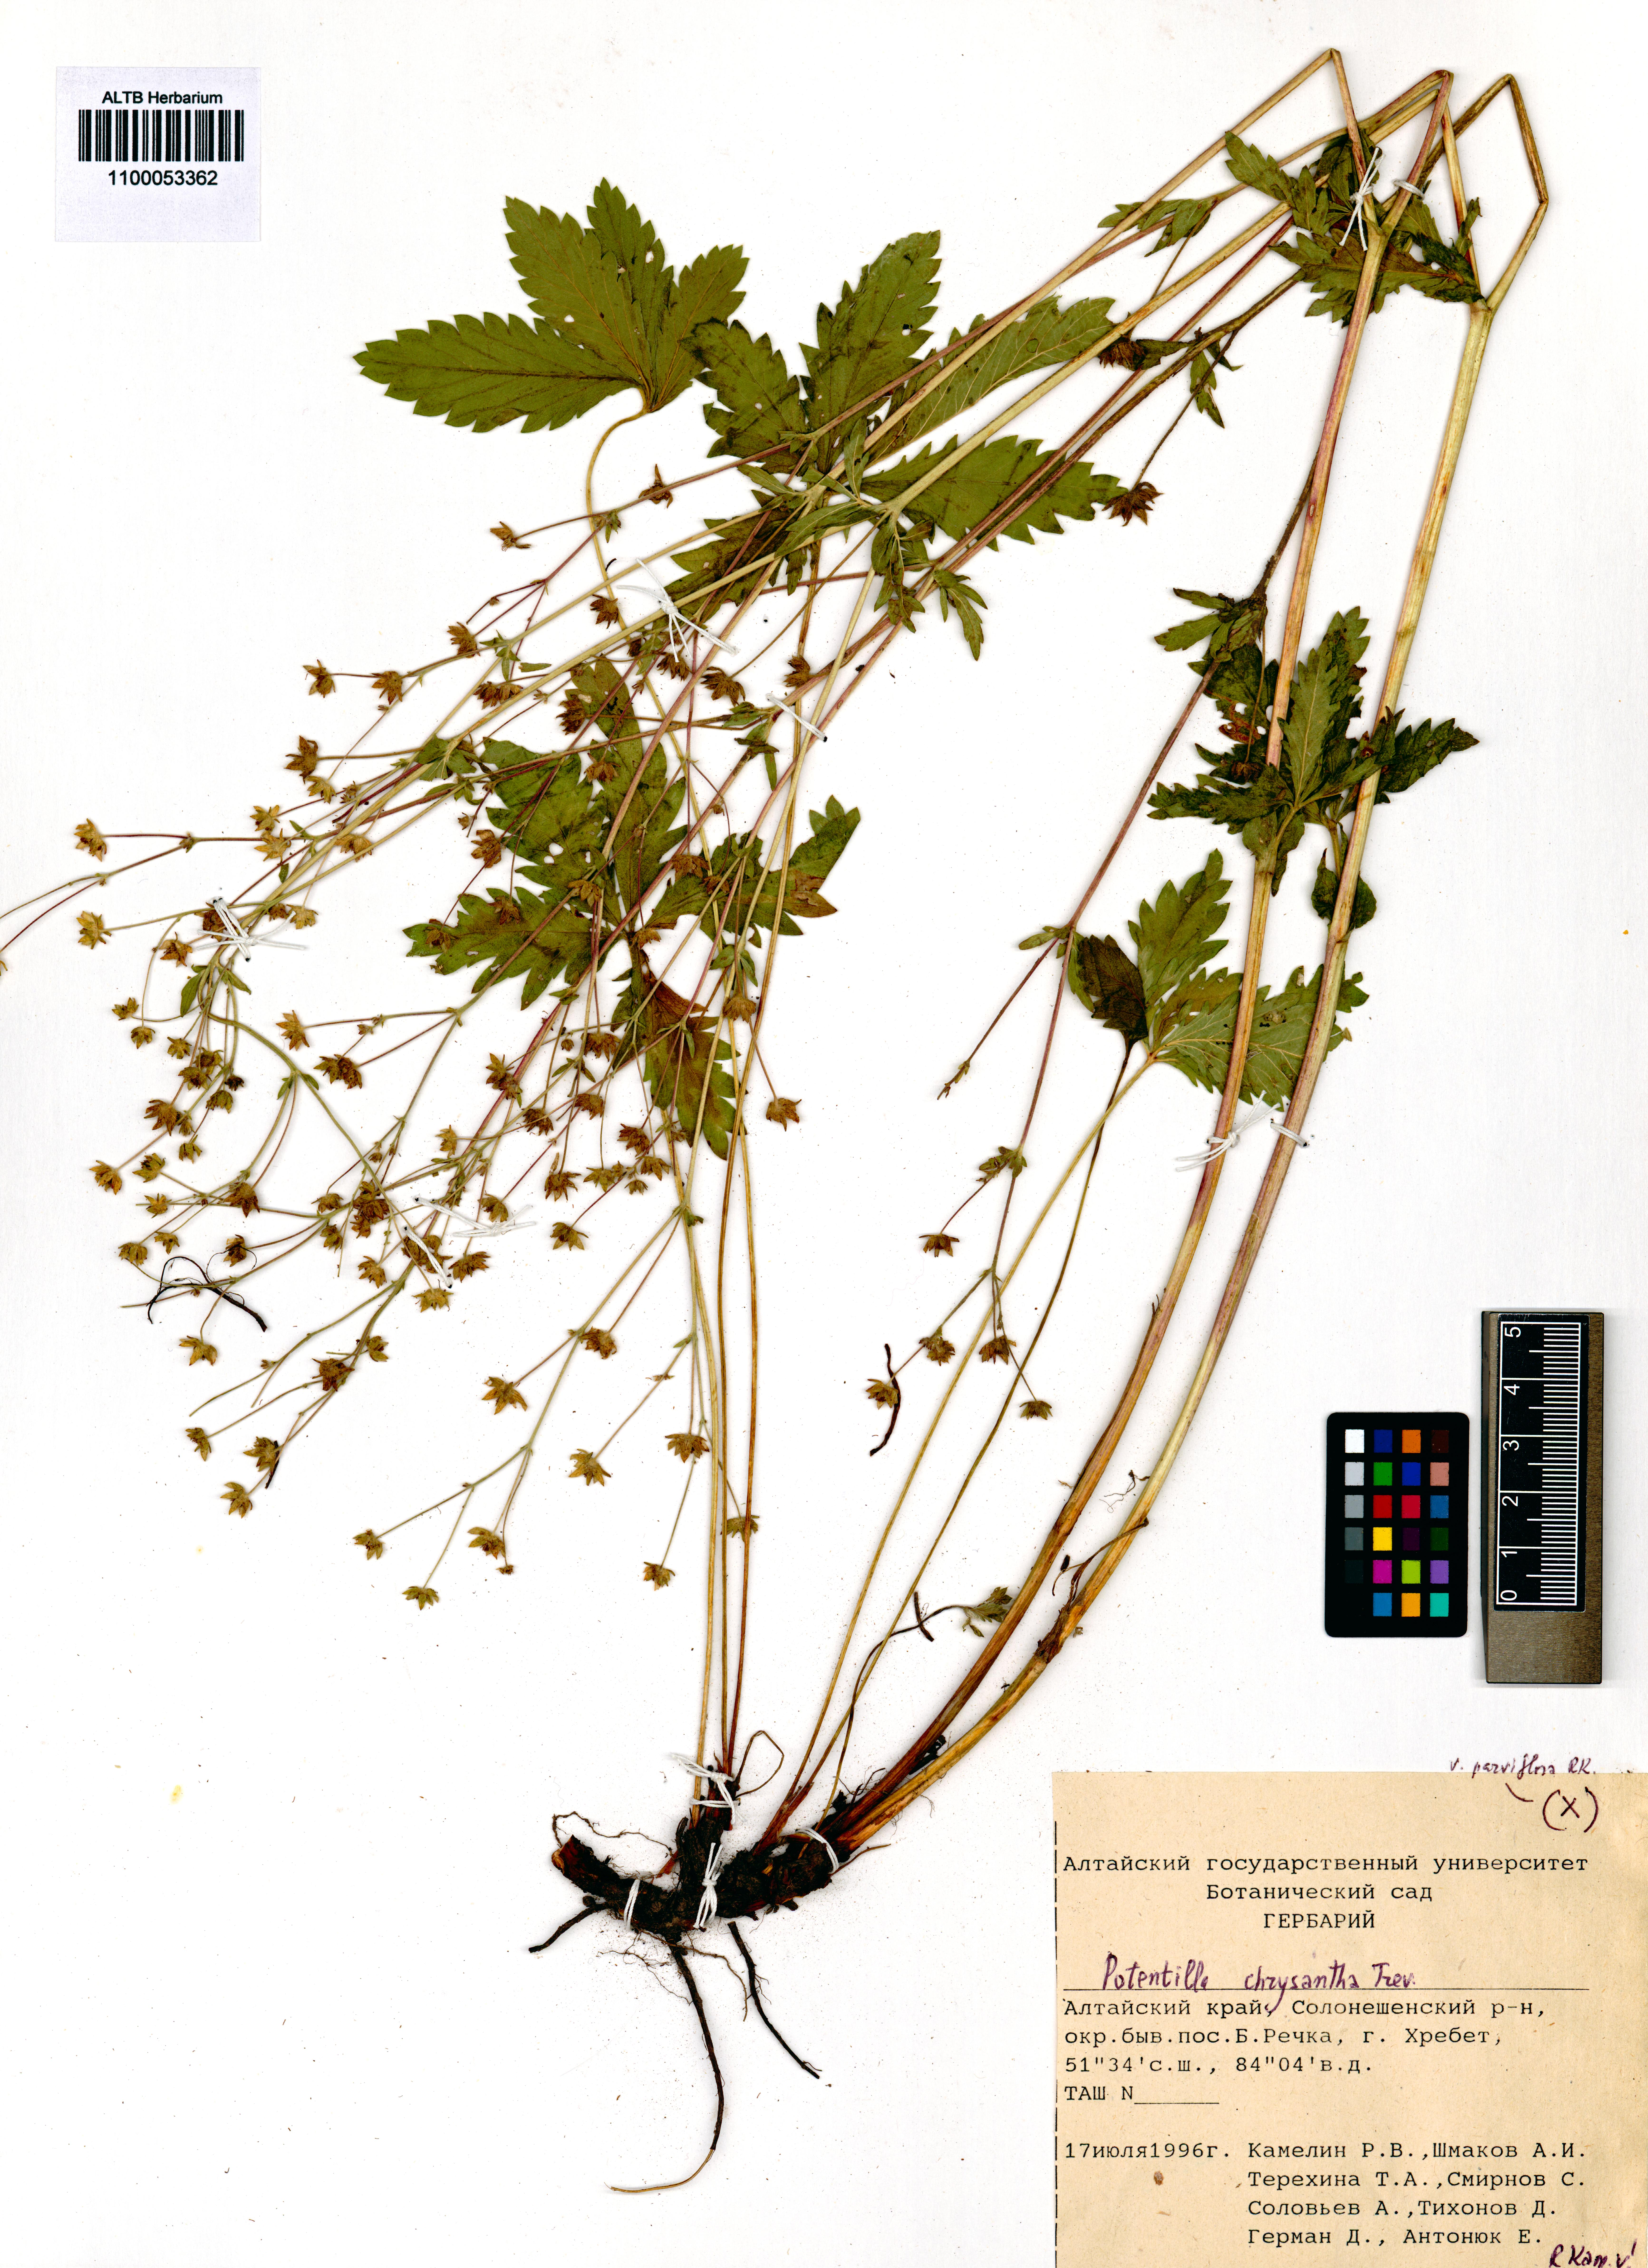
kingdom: Plantae
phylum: Tracheophyta
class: Magnoliopsida
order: Rosales
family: Rosaceae
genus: Potentilla
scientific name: Potentilla chrysantha
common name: Thuringian cinquefoil
